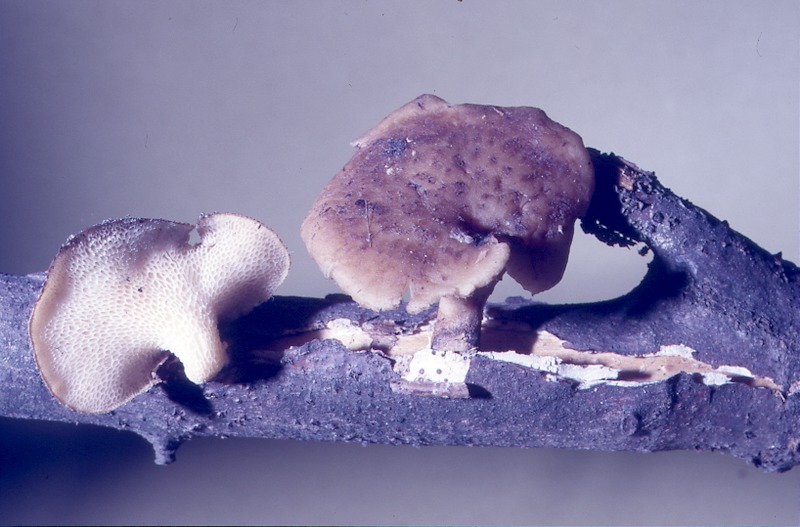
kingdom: Fungi
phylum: Basidiomycota
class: Agaricomycetes
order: Polyporales
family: Polyporaceae
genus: Polyporus
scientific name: Polyporus tuberaster
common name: Tuberous polypore
